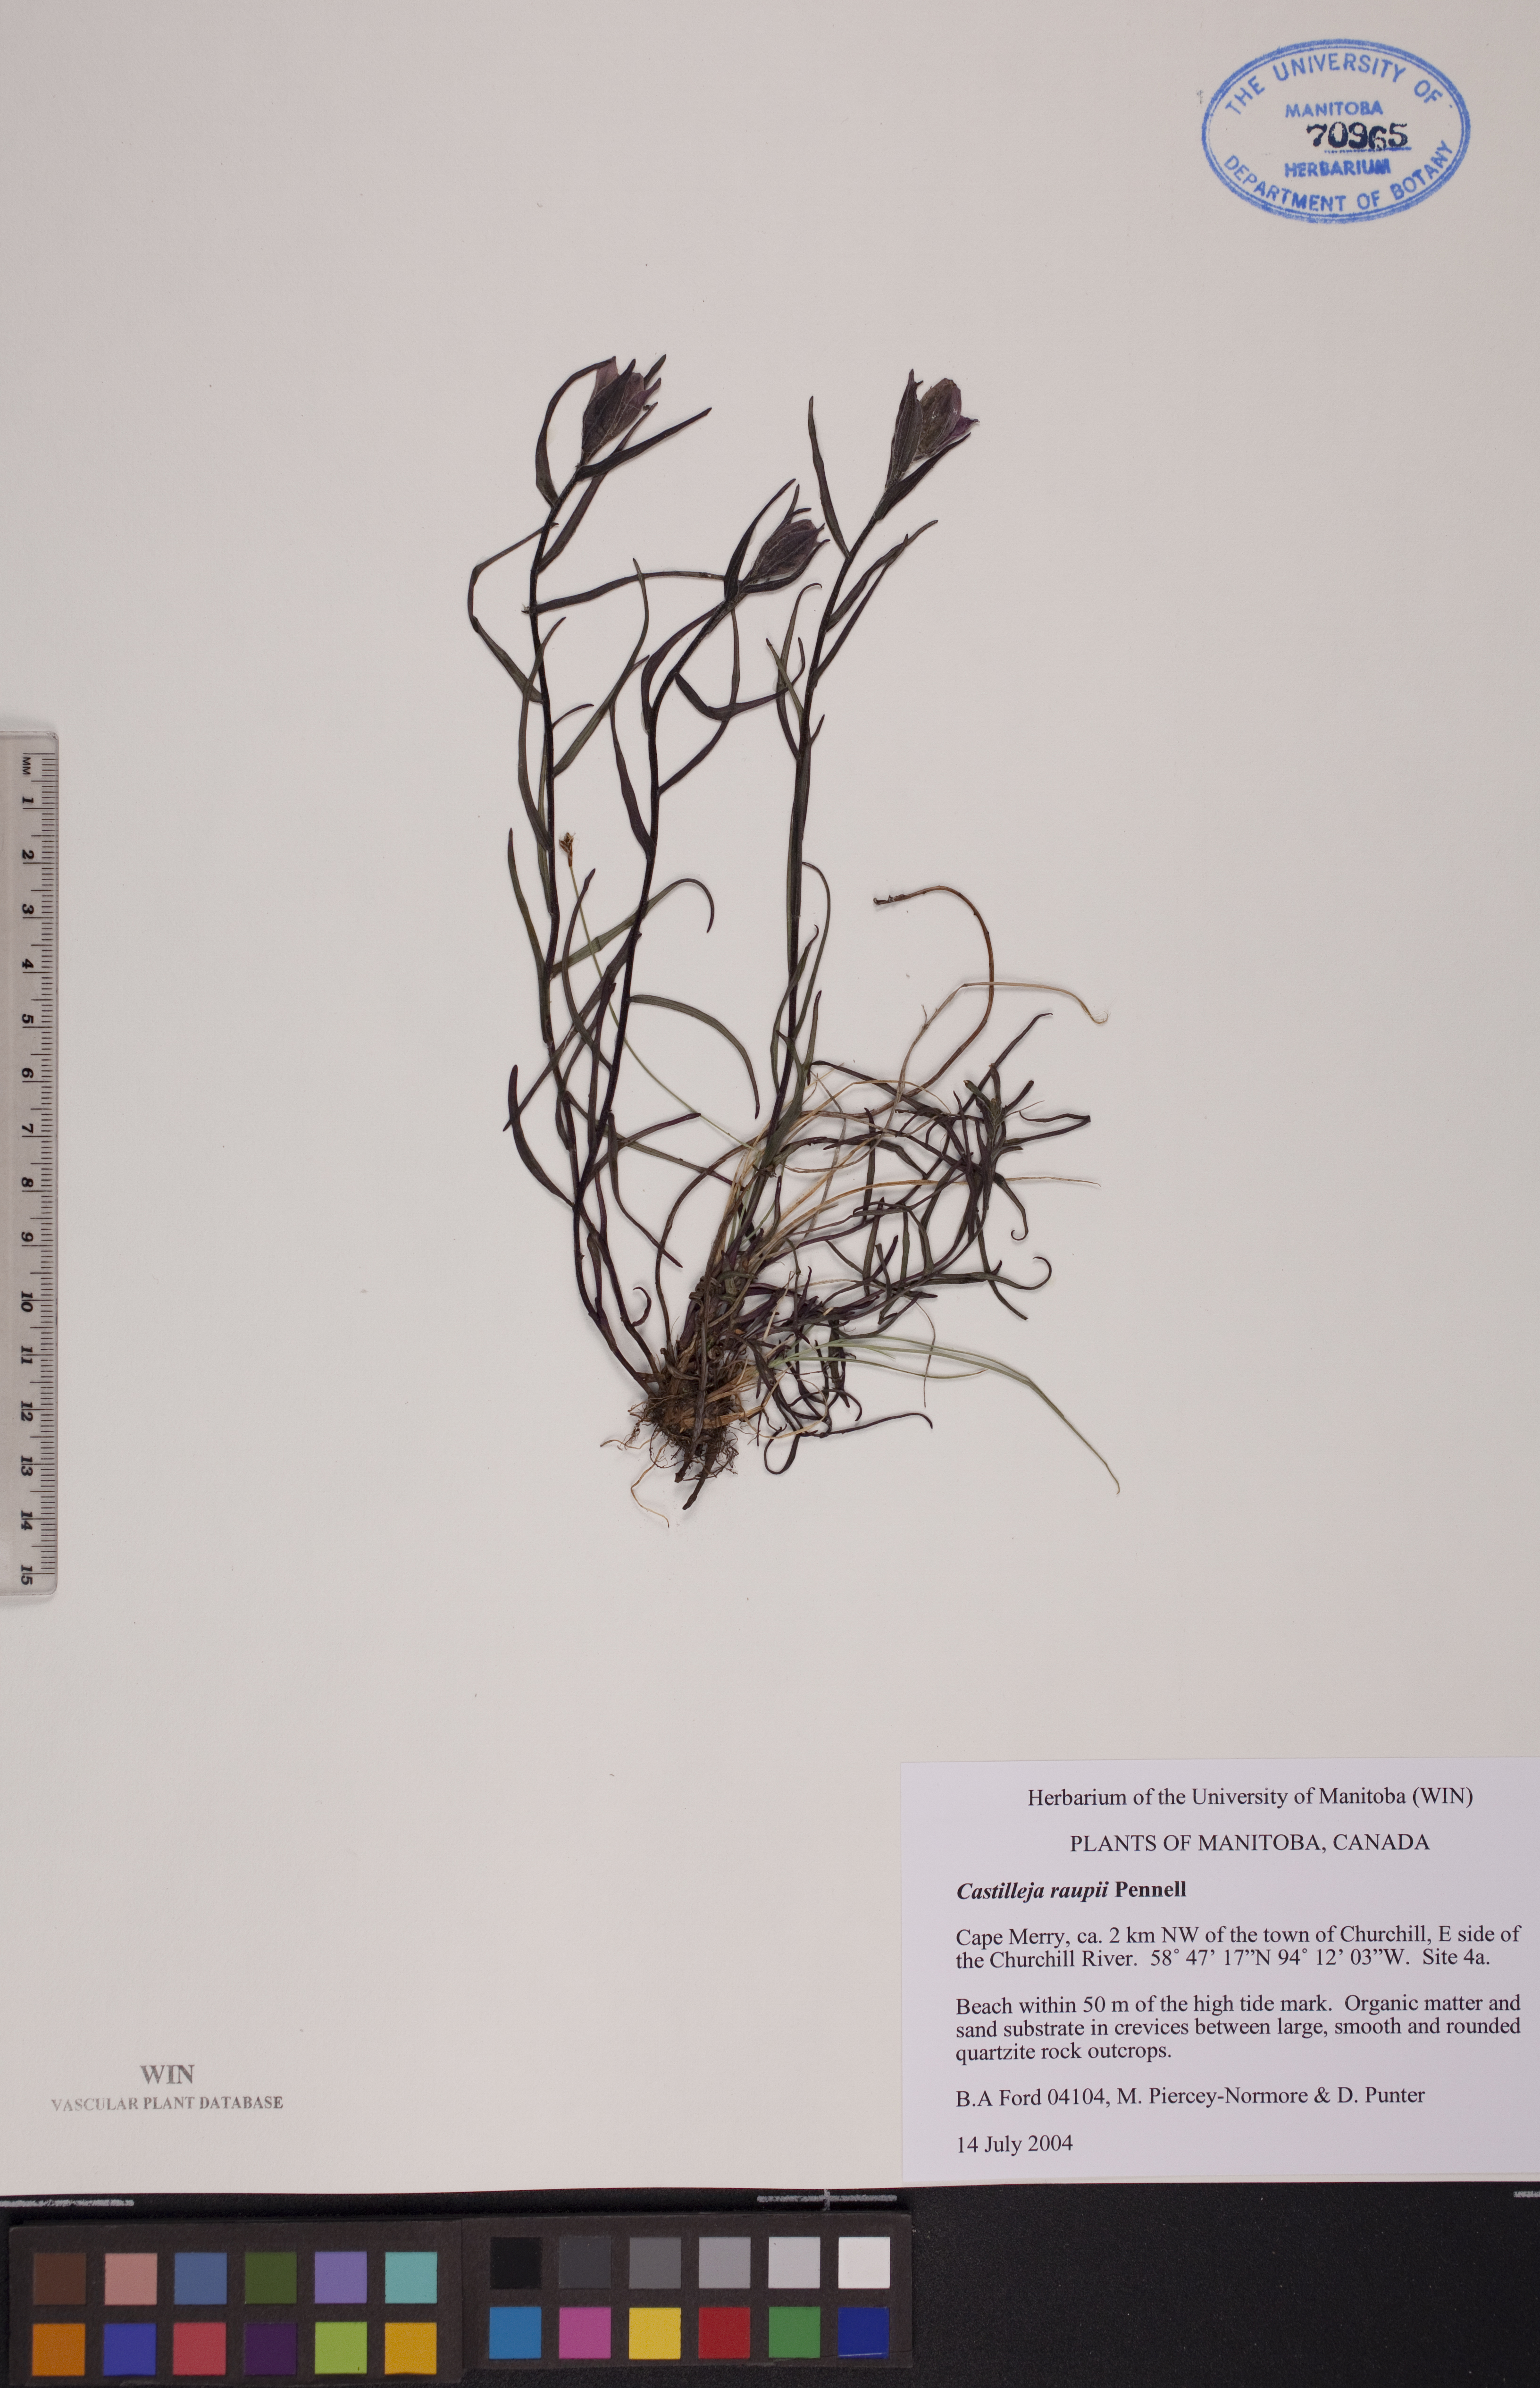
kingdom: Plantae
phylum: Tracheophyta
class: Magnoliopsida
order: Lamiales
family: Orobanchaceae
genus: Castilleja
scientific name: Castilleja raupii
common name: Raup's paintbrush
